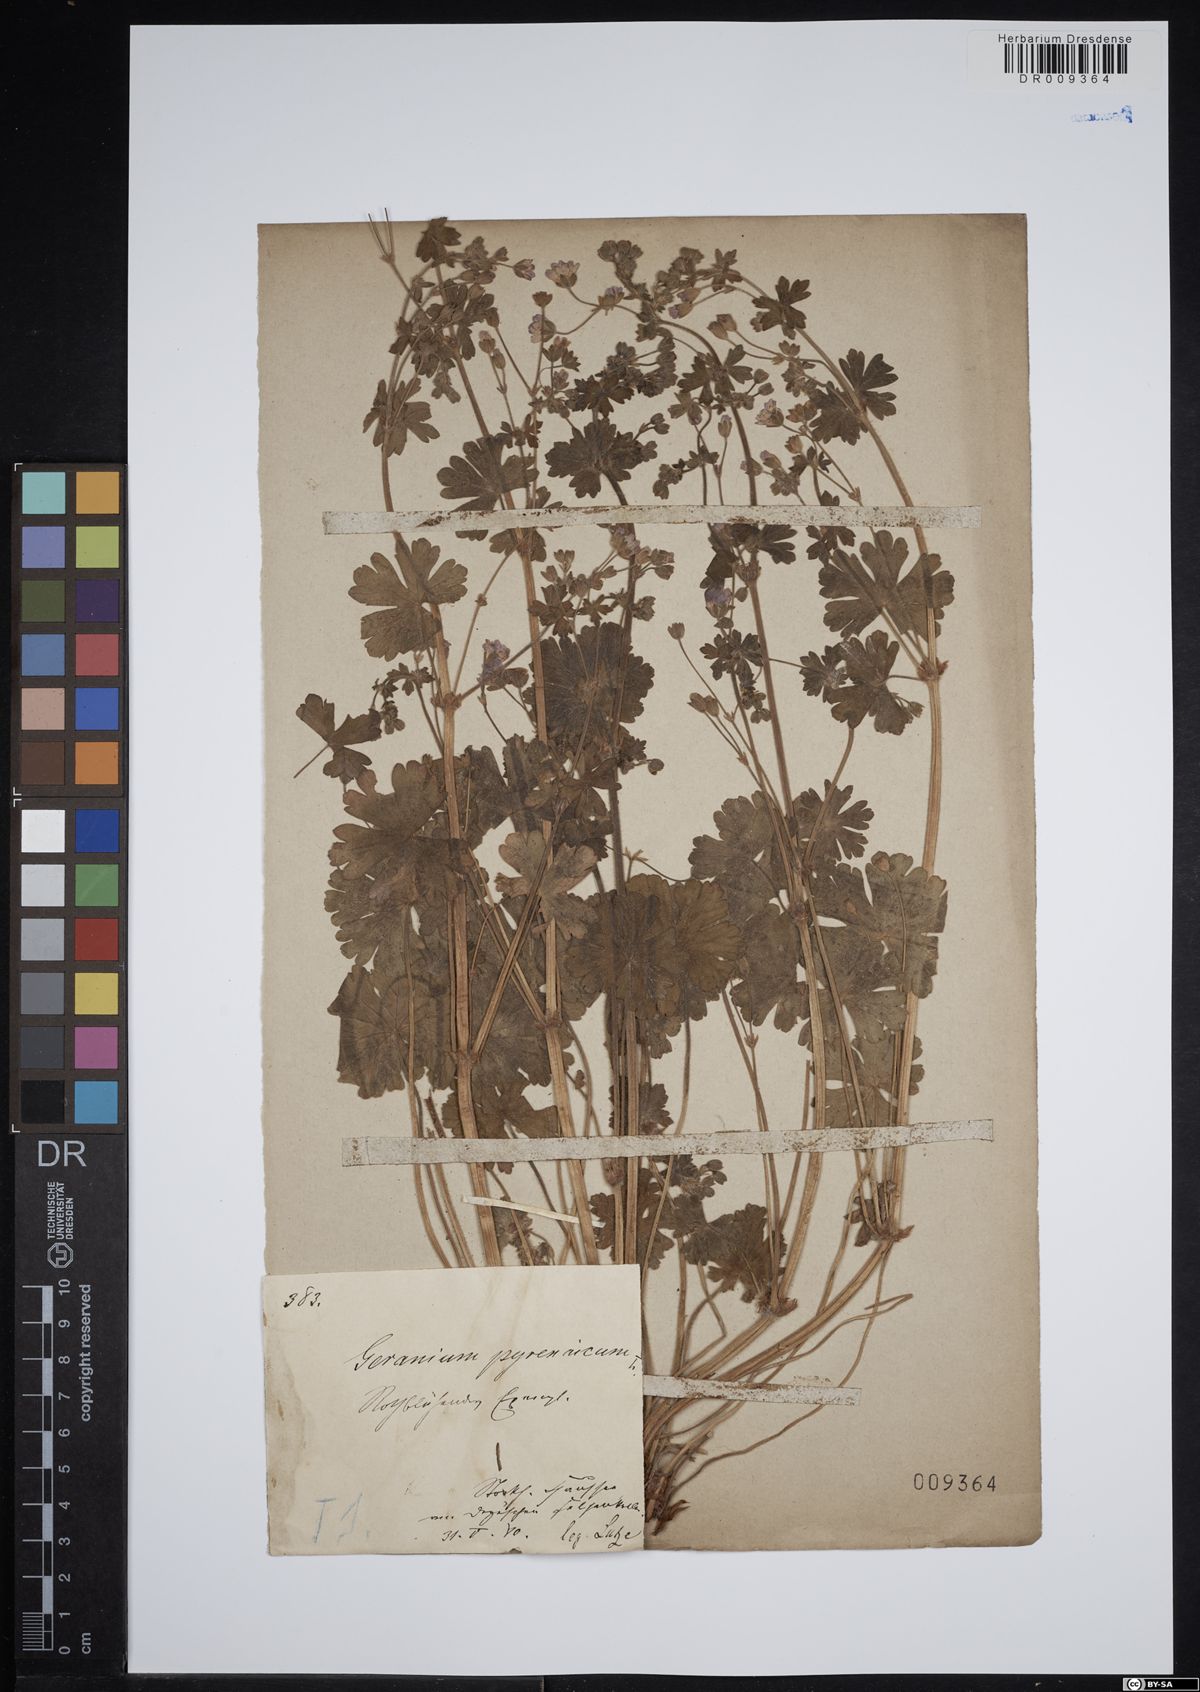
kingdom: Plantae
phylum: Tracheophyta
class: Magnoliopsida
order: Geraniales
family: Geraniaceae
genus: Geranium
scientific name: Geranium pyrenaicum
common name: Hedgerow crane's-bill
